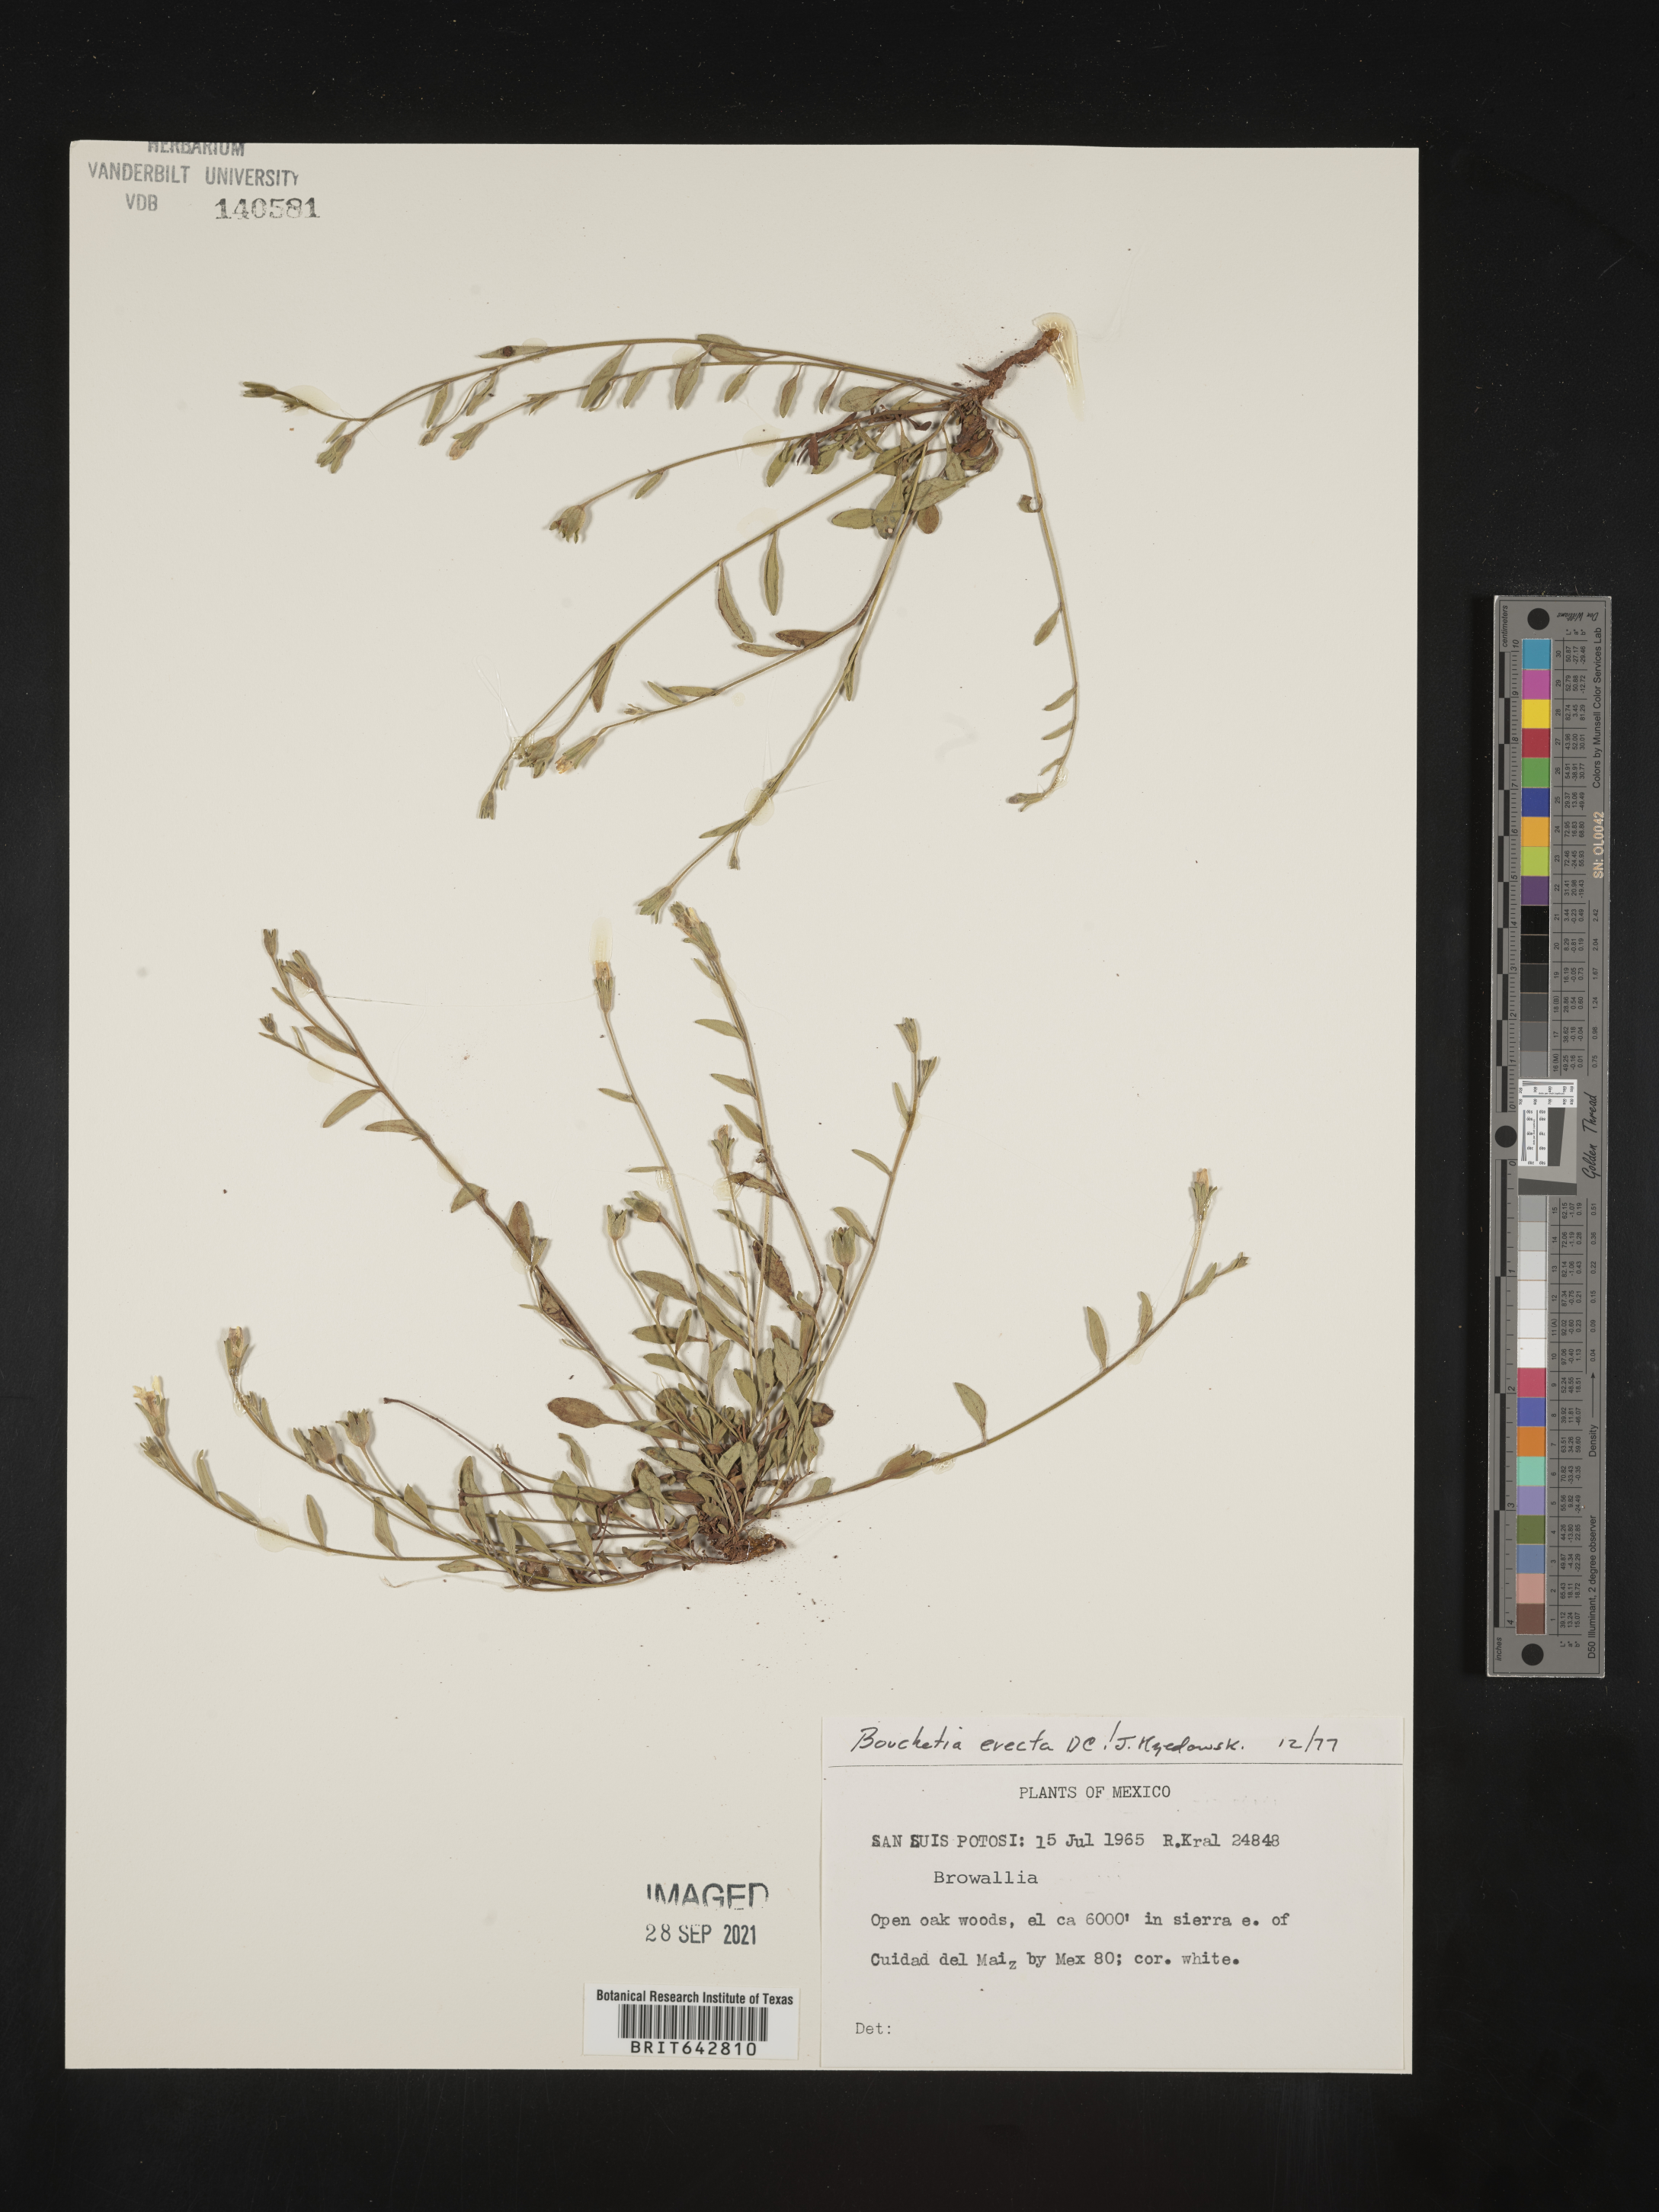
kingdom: Plantae
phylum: Tracheophyta
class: Magnoliopsida
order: Solanales
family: Solanaceae
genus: Salpiglossis
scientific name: Salpiglossis erecta
